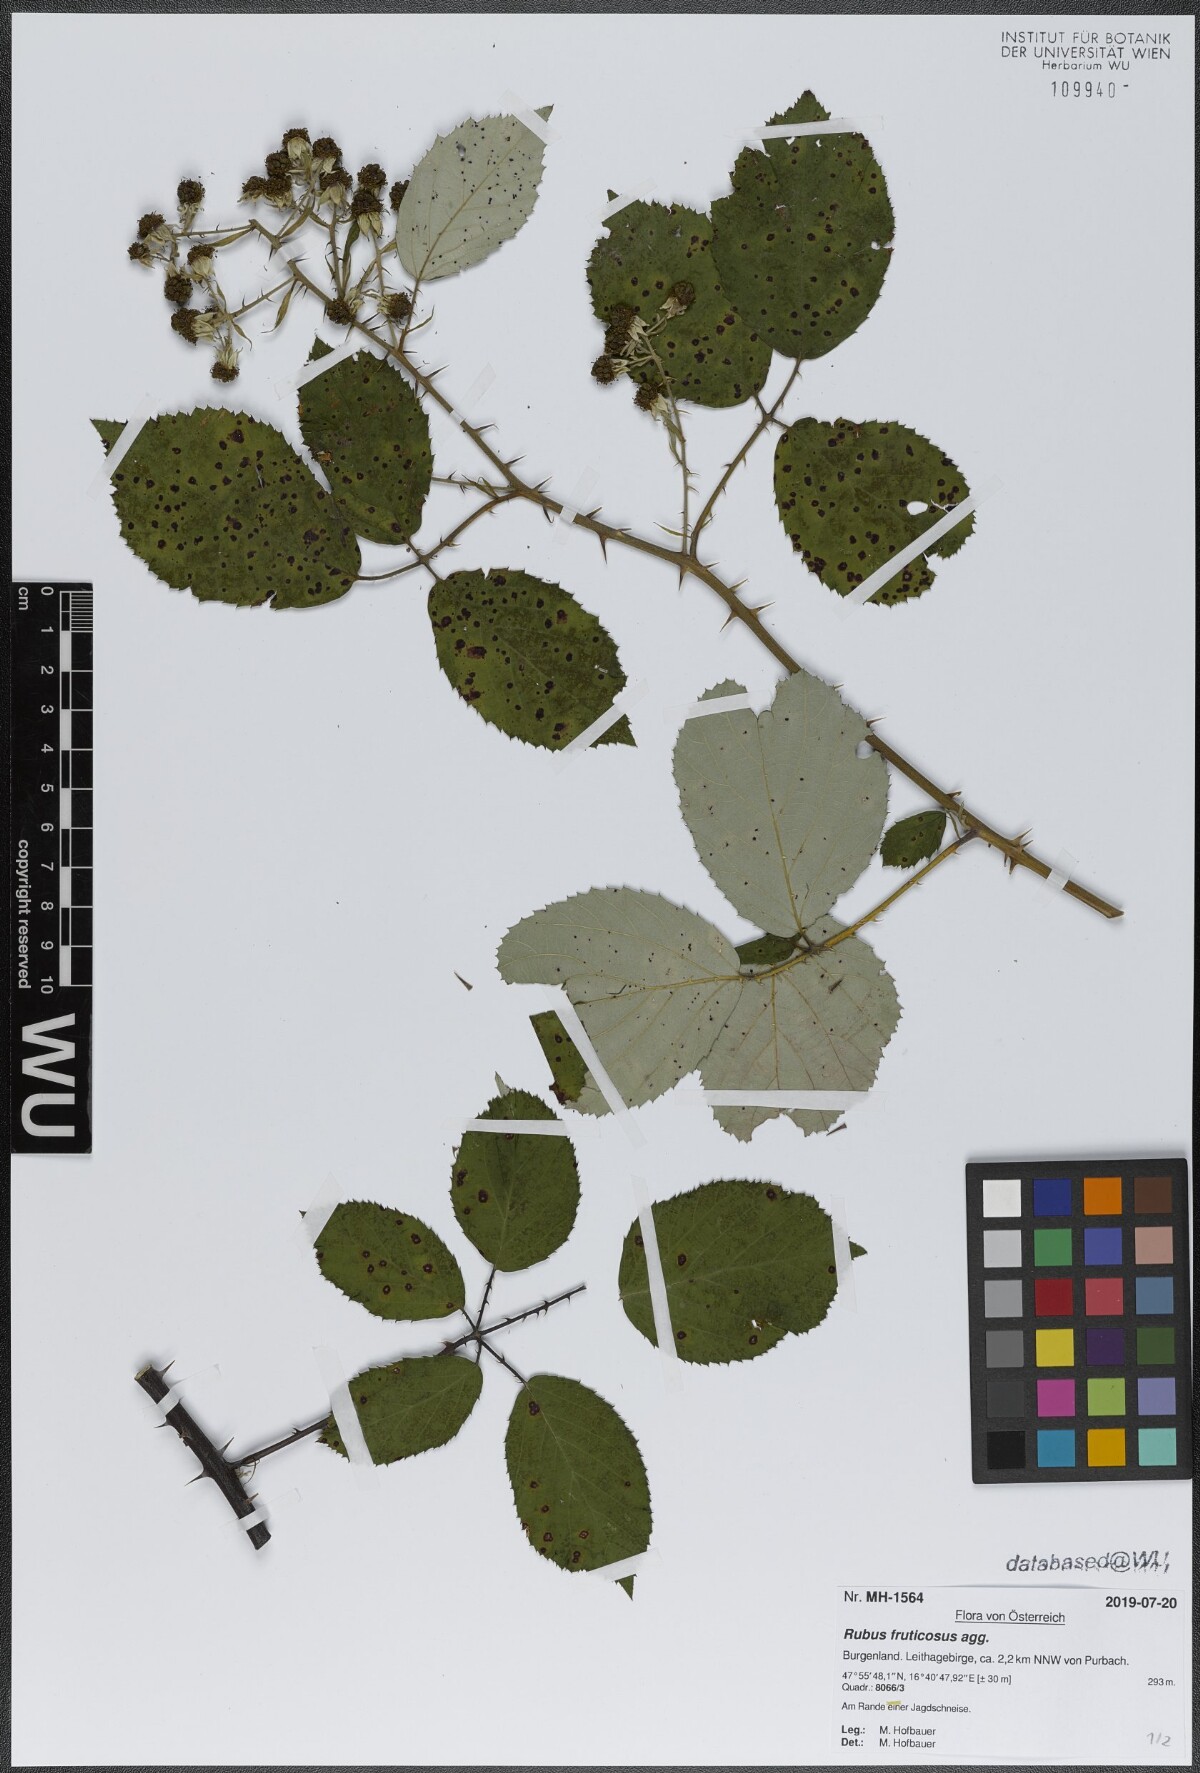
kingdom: Plantae
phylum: Tracheophyta
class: Magnoliopsida
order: Rosales
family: Rosaceae
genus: Rubus
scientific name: Rubus fruticosus
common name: Blackberry, bramble
